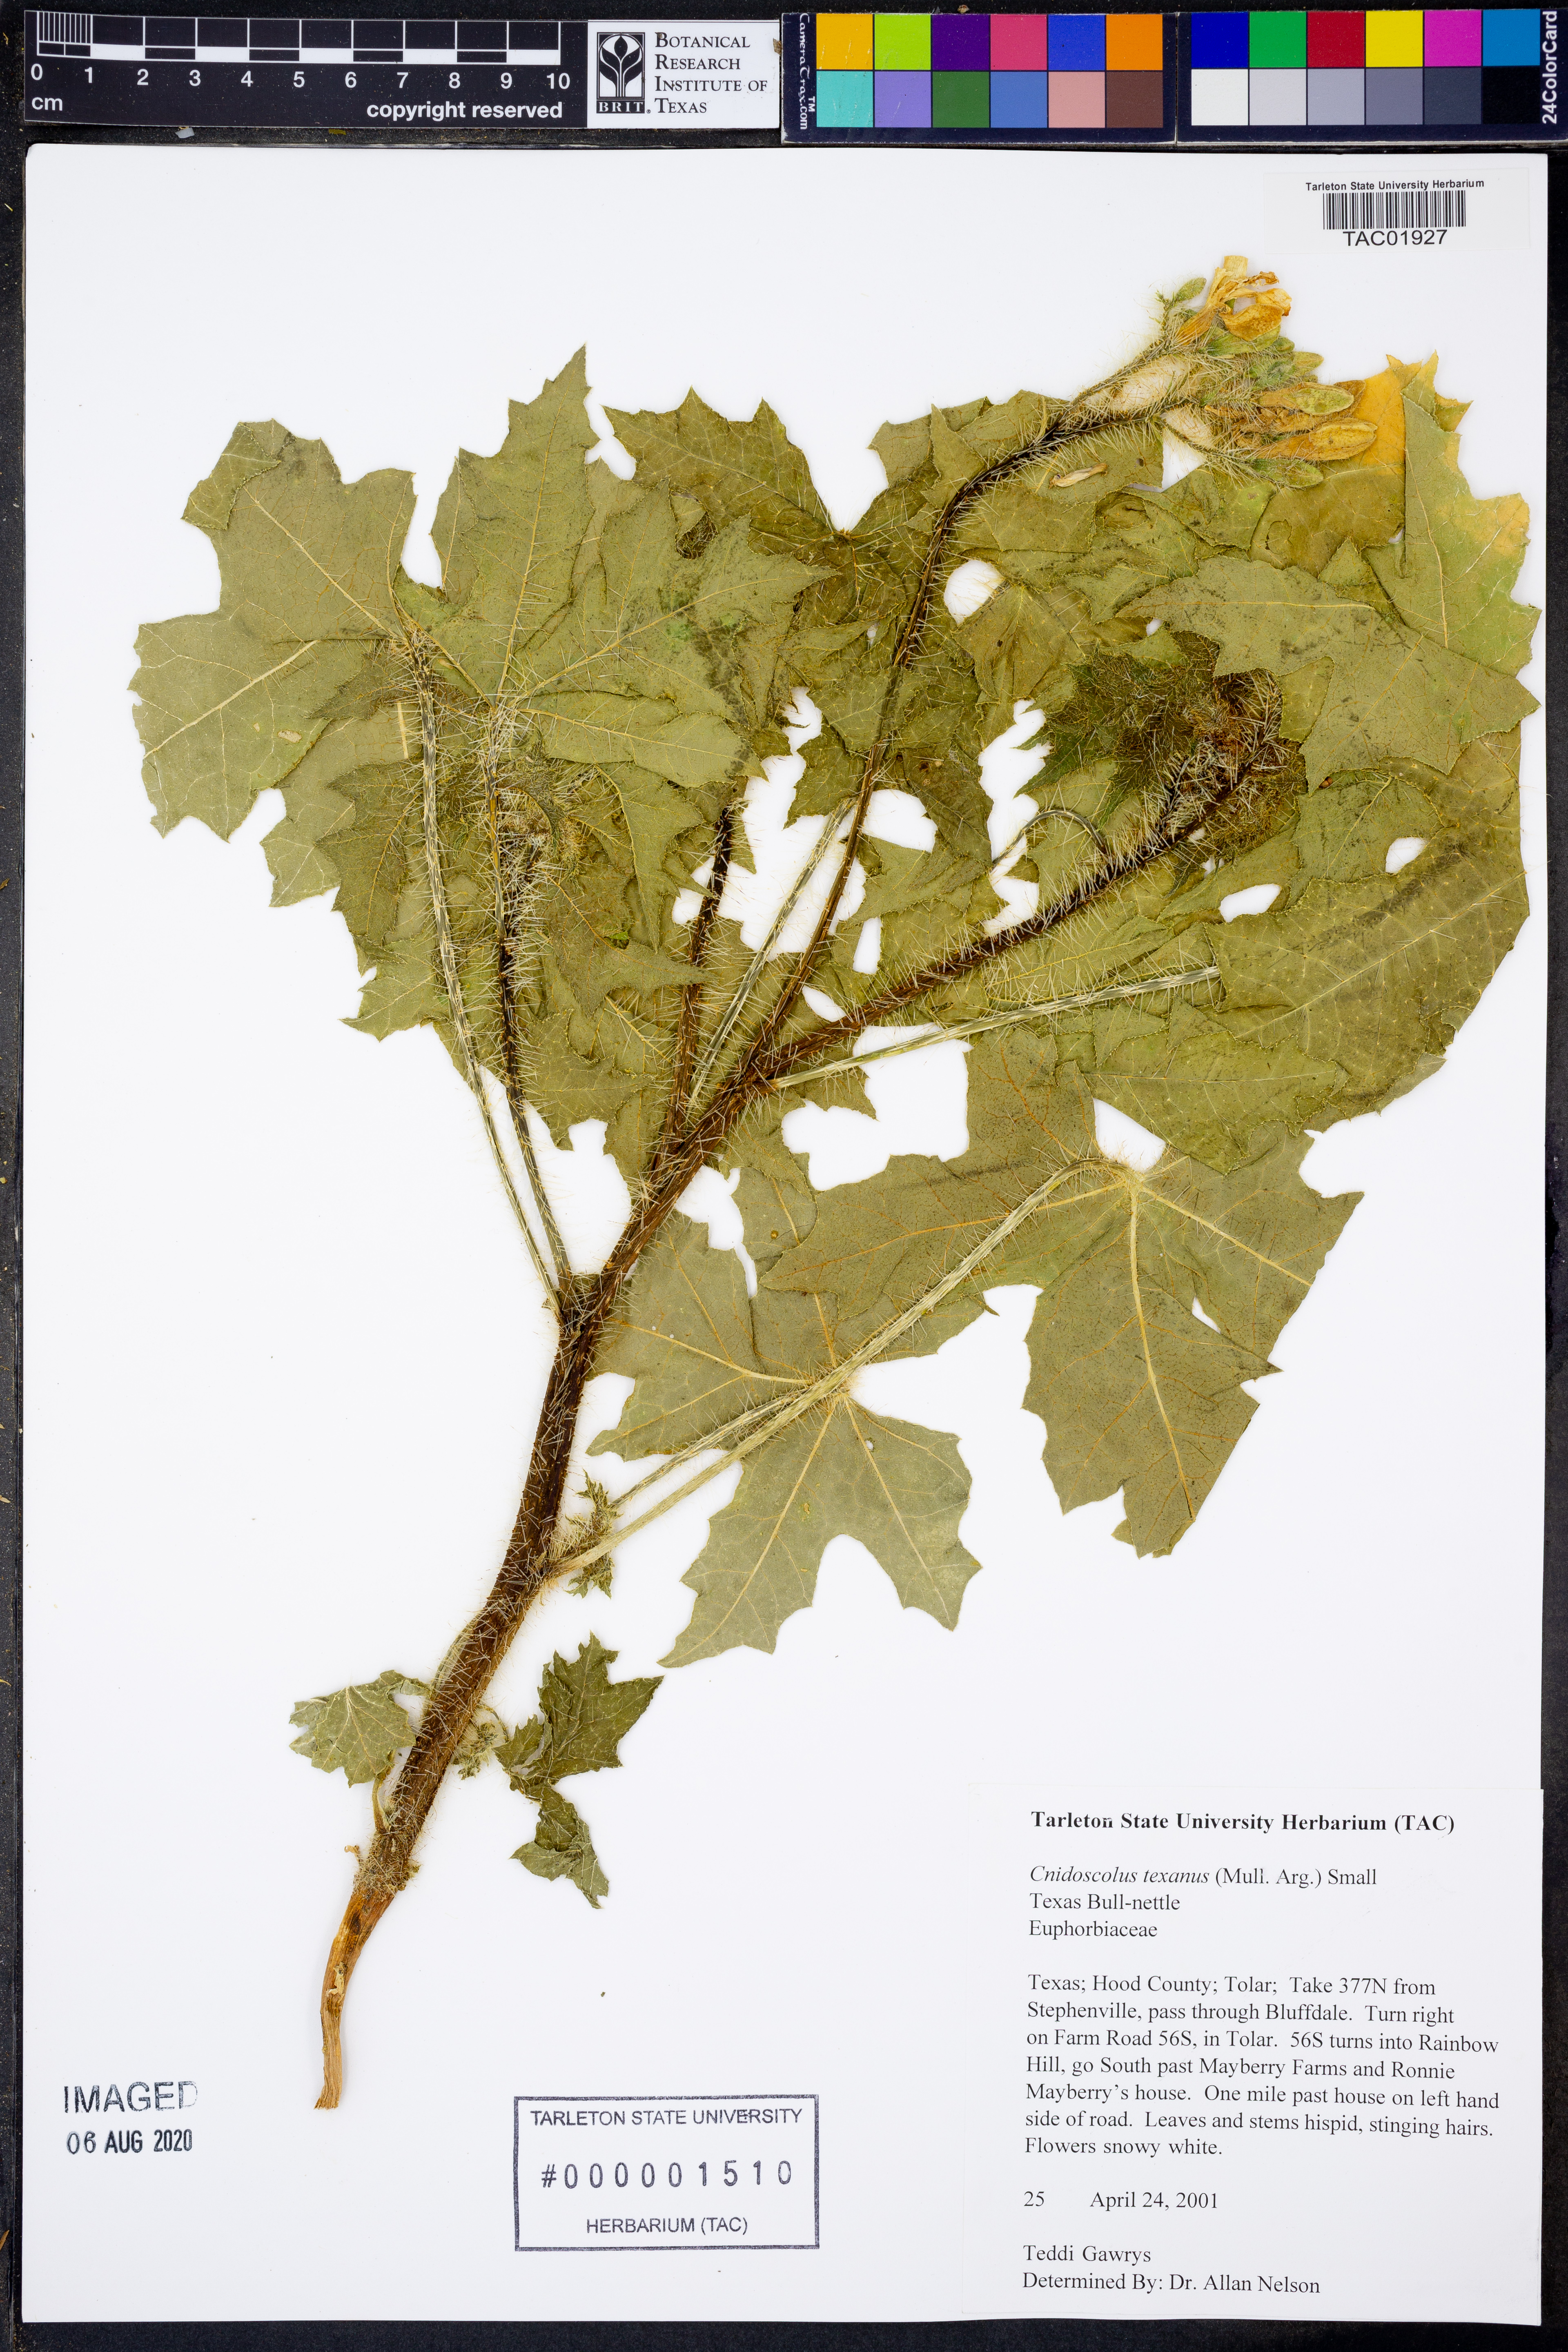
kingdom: Plantae
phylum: Tracheophyta
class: Magnoliopsida
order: Malpighiales
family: Euphorbiaceae
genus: Cnidoscolus
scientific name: Cnidoscolus texanus
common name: Texas bull-nettle
